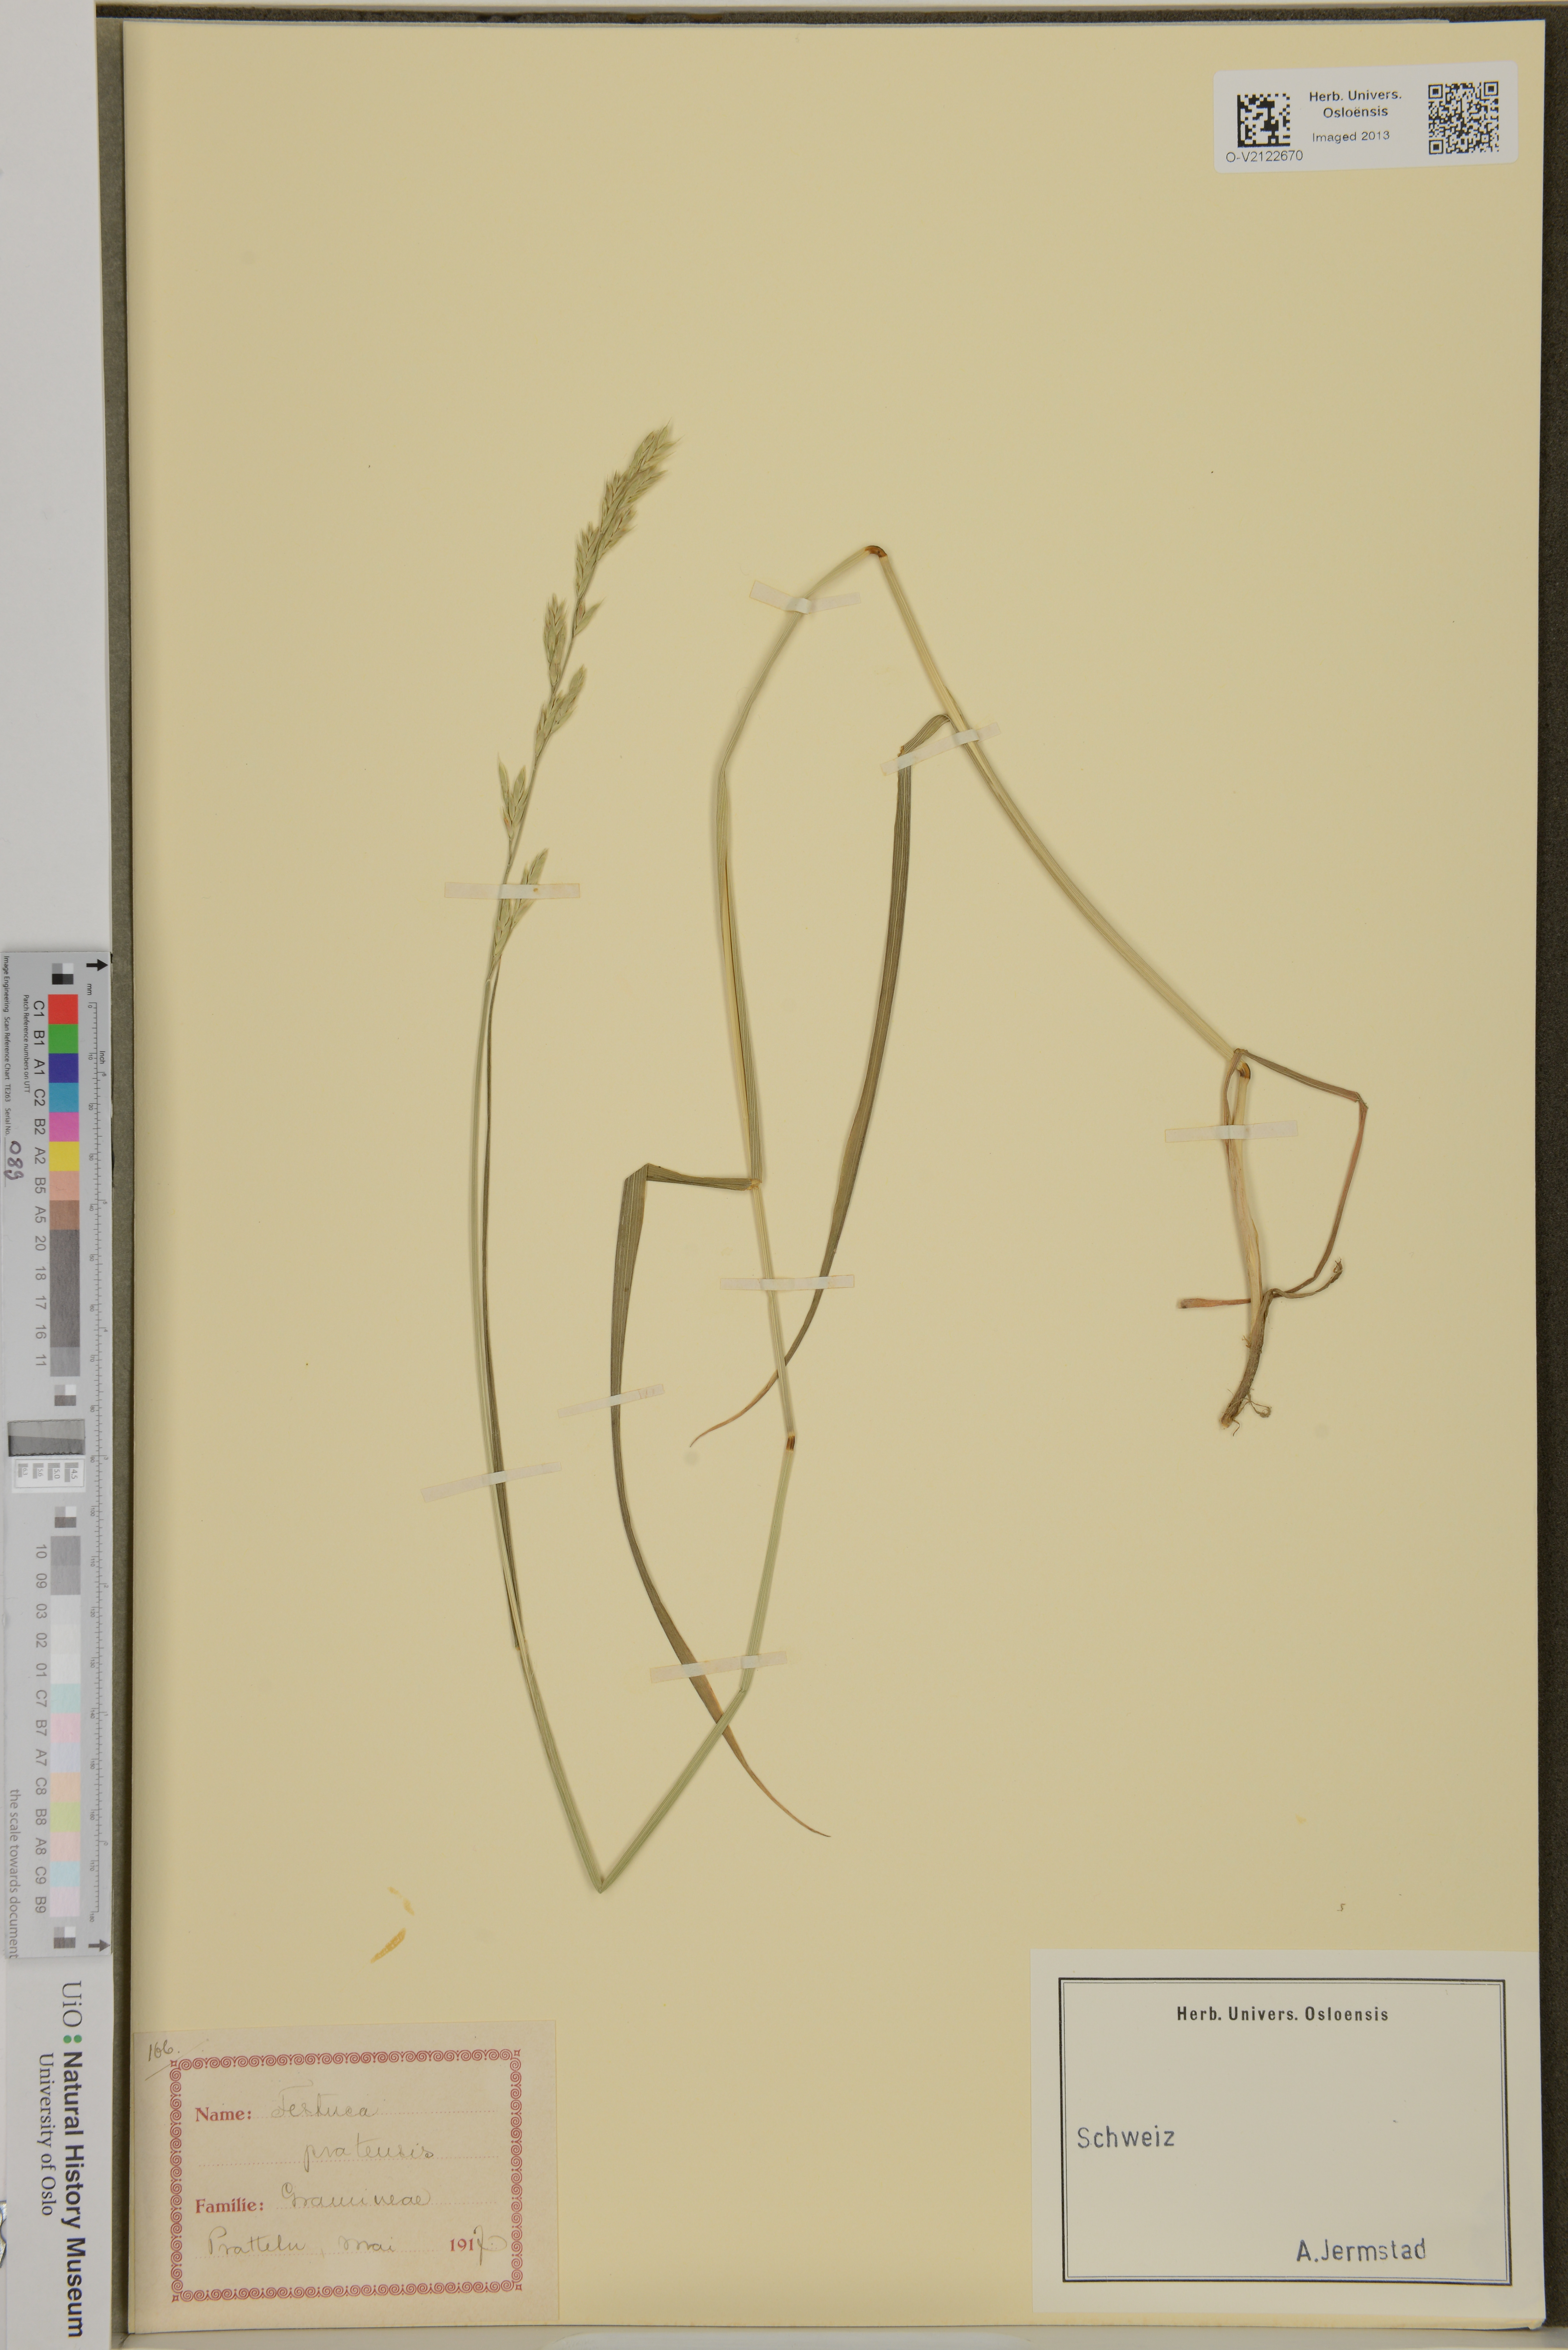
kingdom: Plantae
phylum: Tracheophyta
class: Liliopsida
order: Poales
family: Poaceae
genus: Lolium
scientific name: Lolium pratense
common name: Dover grass
